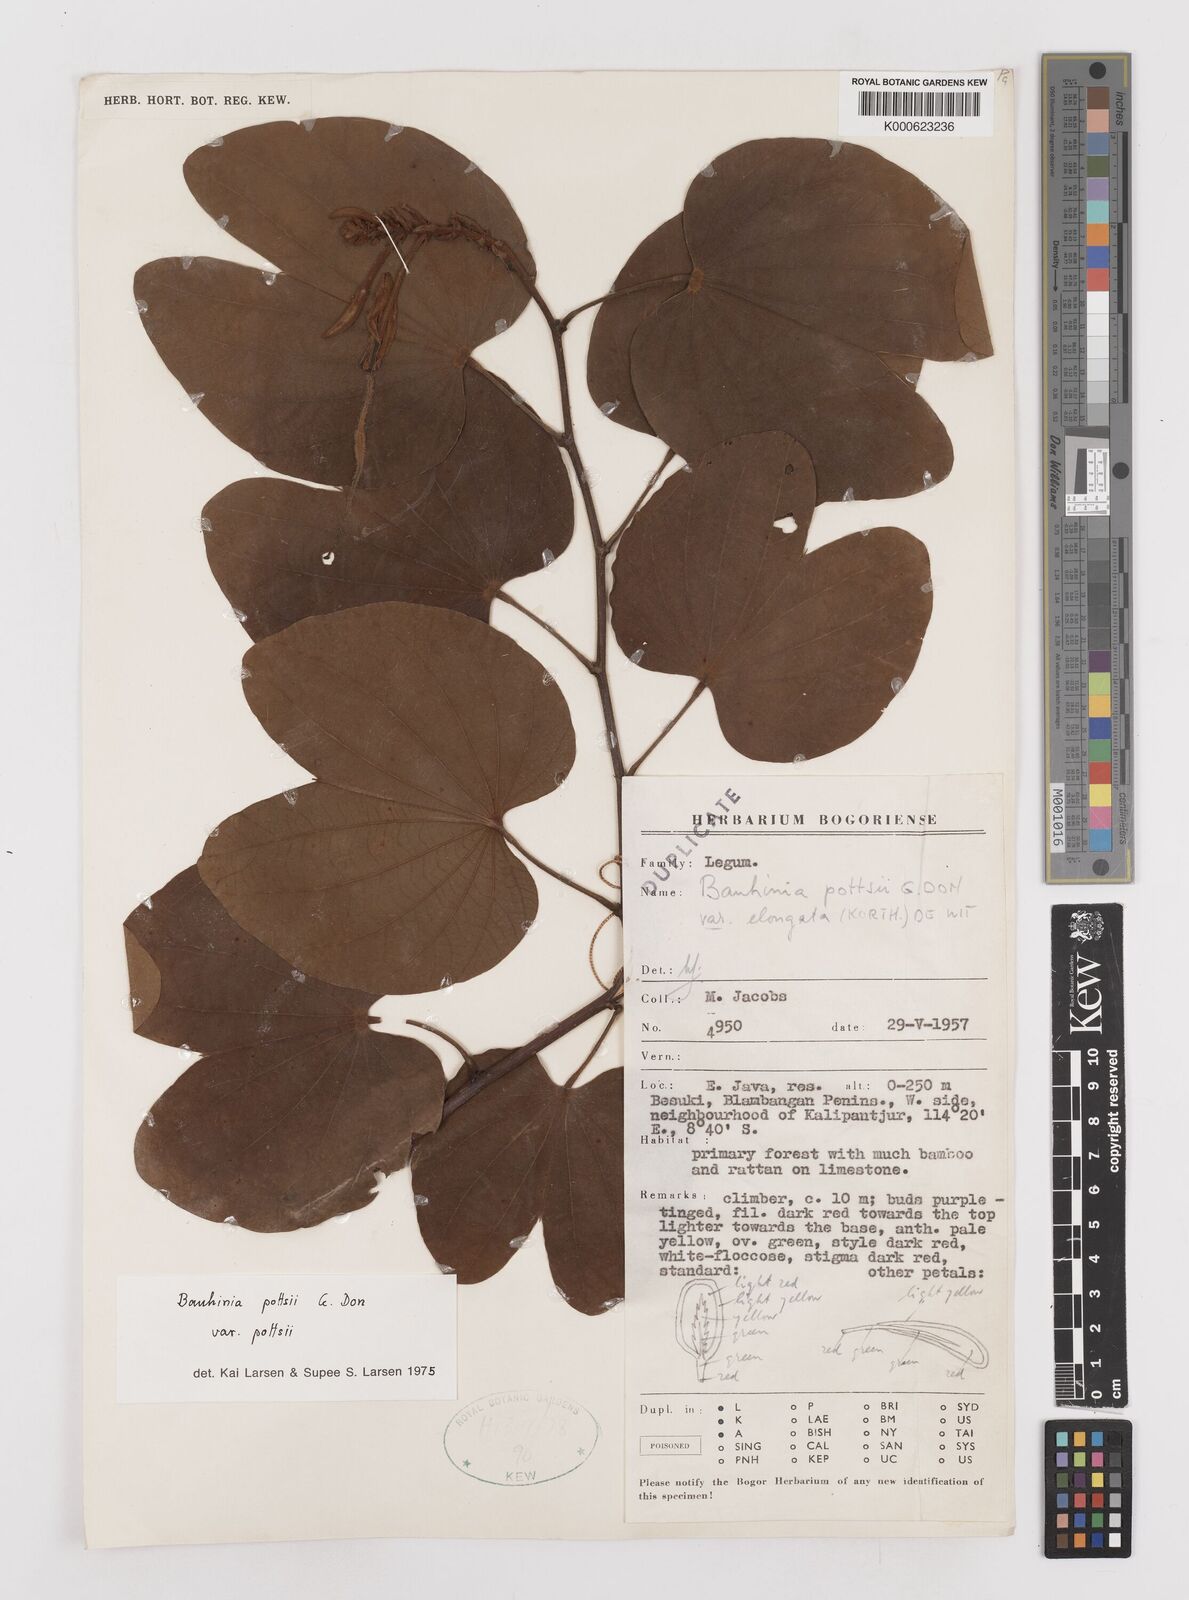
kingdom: Plantae
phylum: Tracheophyta
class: Magnoliopsida
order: Fabales
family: Fabaceae
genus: Bauhinia
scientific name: Bauhinia
